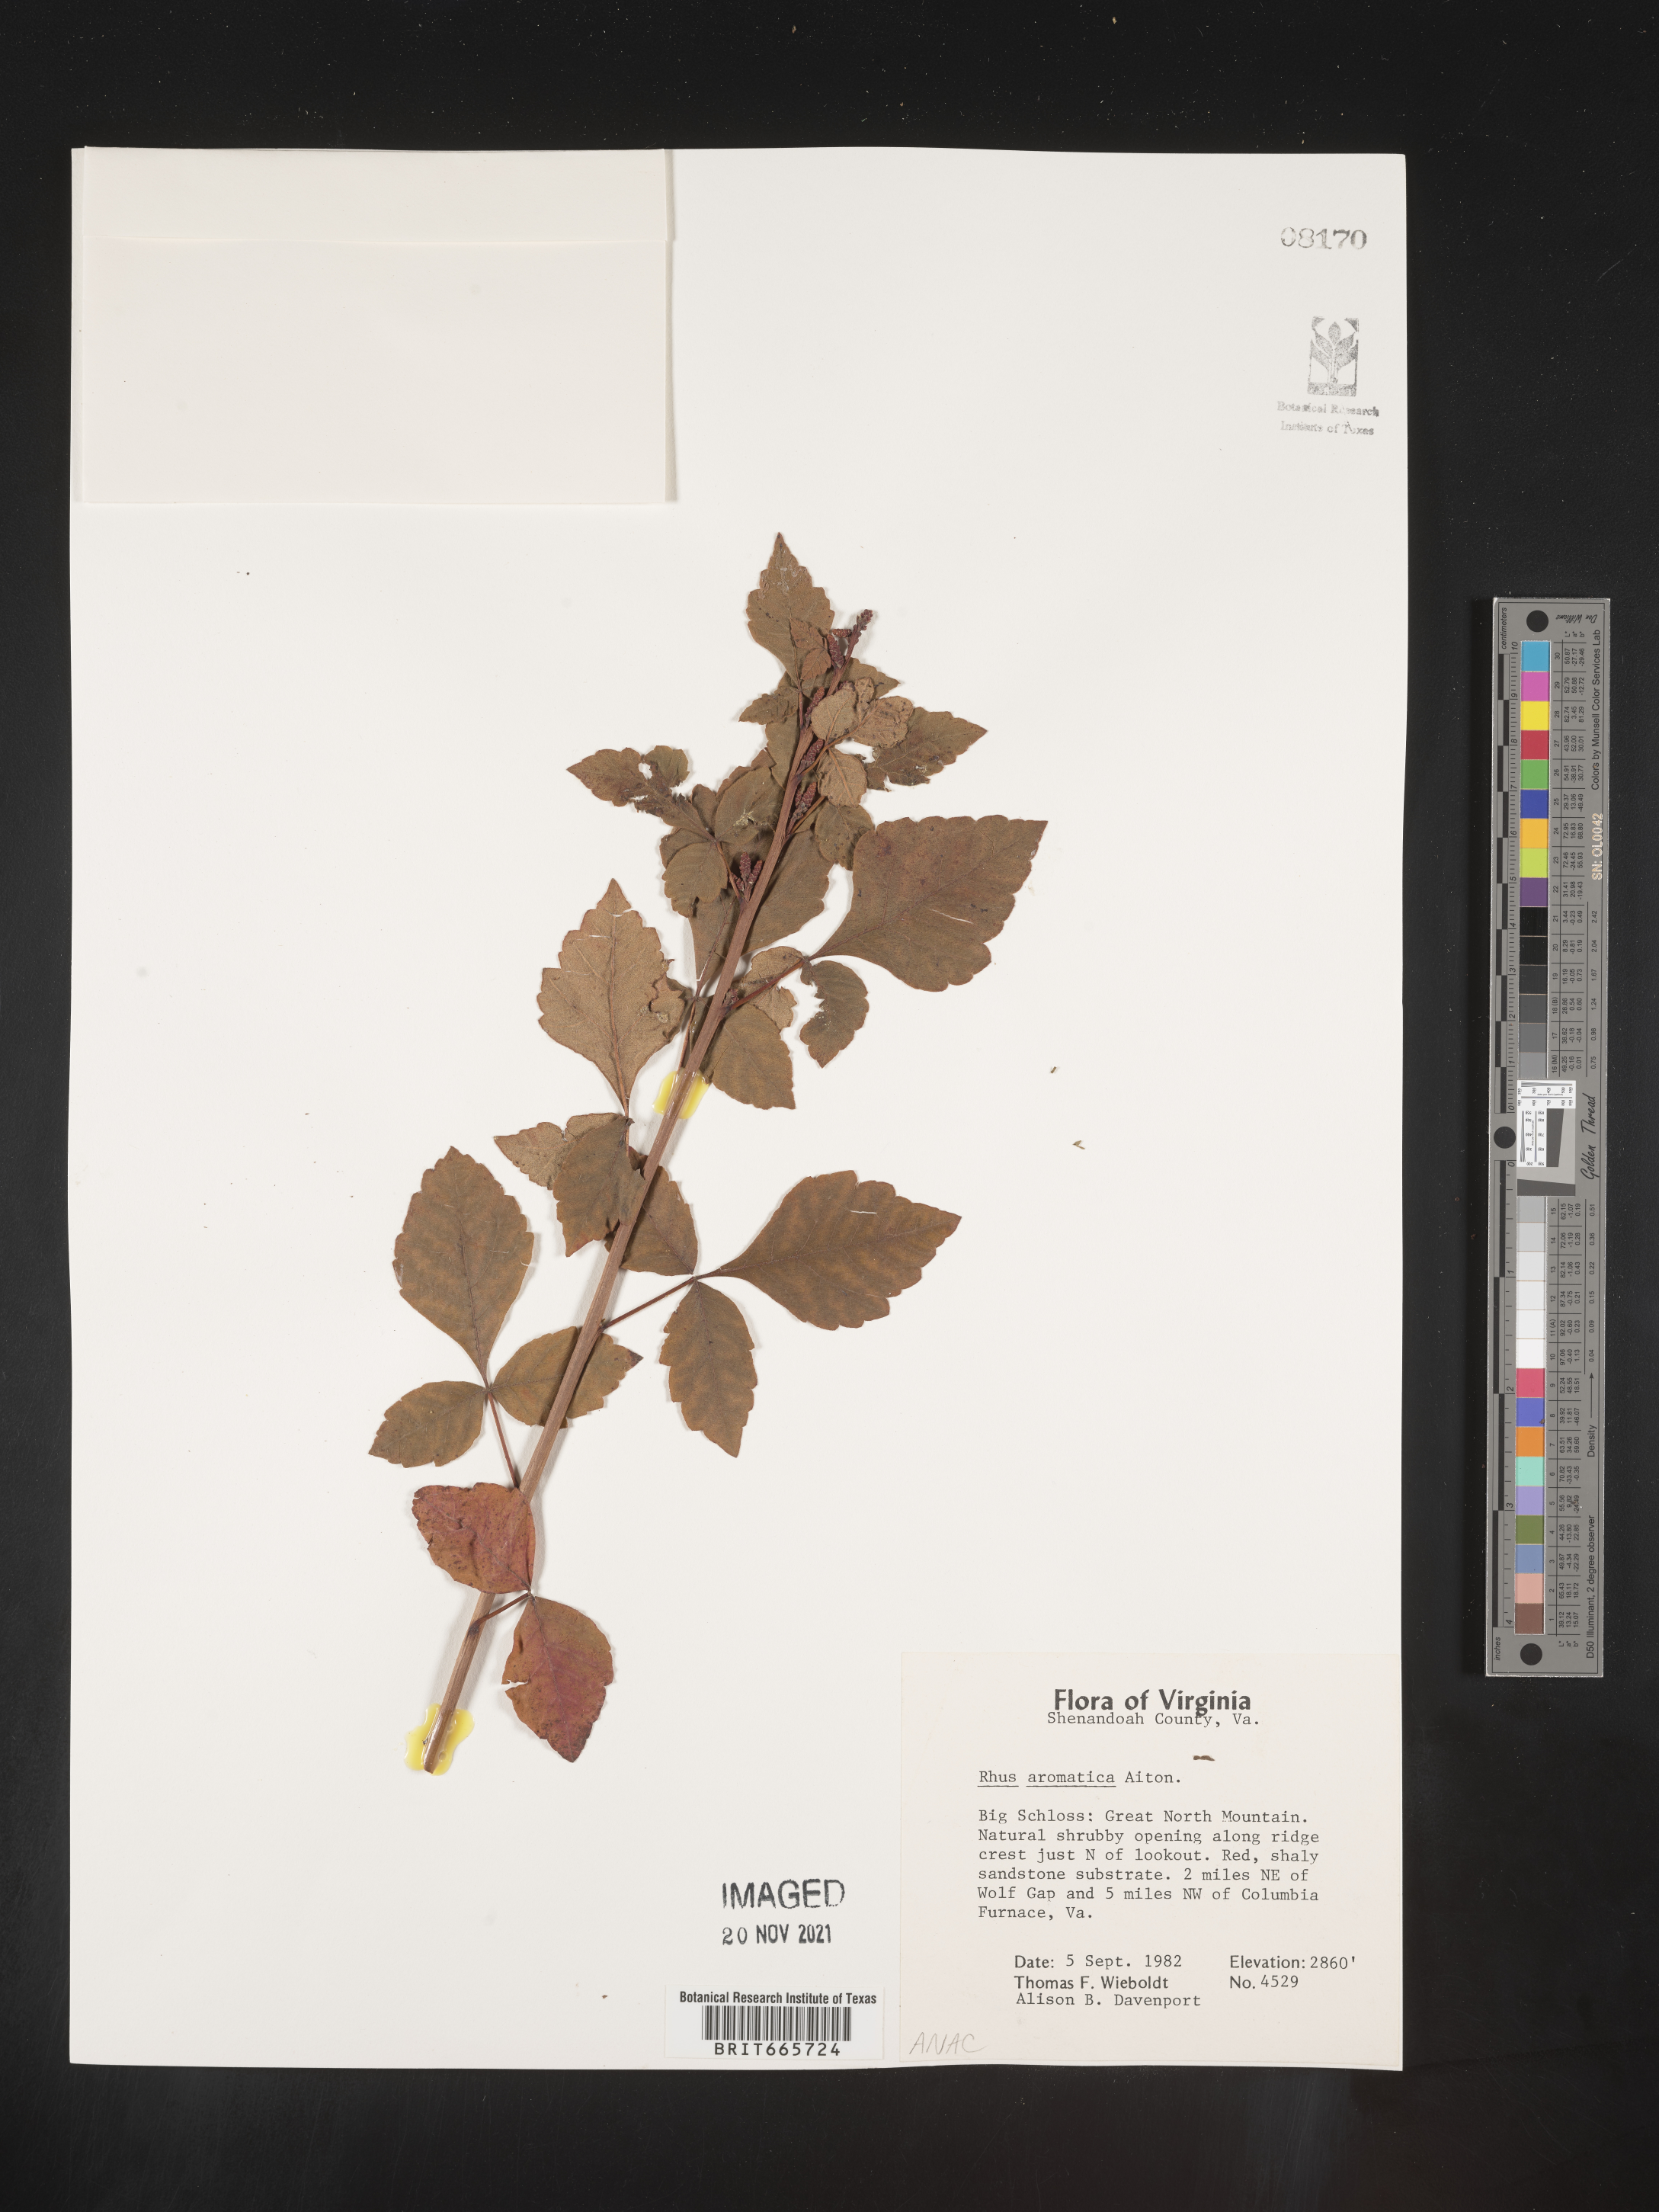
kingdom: Plantae
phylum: Tracheophyta
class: Magnoliopsida
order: Sapindales
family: Anacardiaceae
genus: Rhus
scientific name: Rhus aromatica
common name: Aromatic sumac
